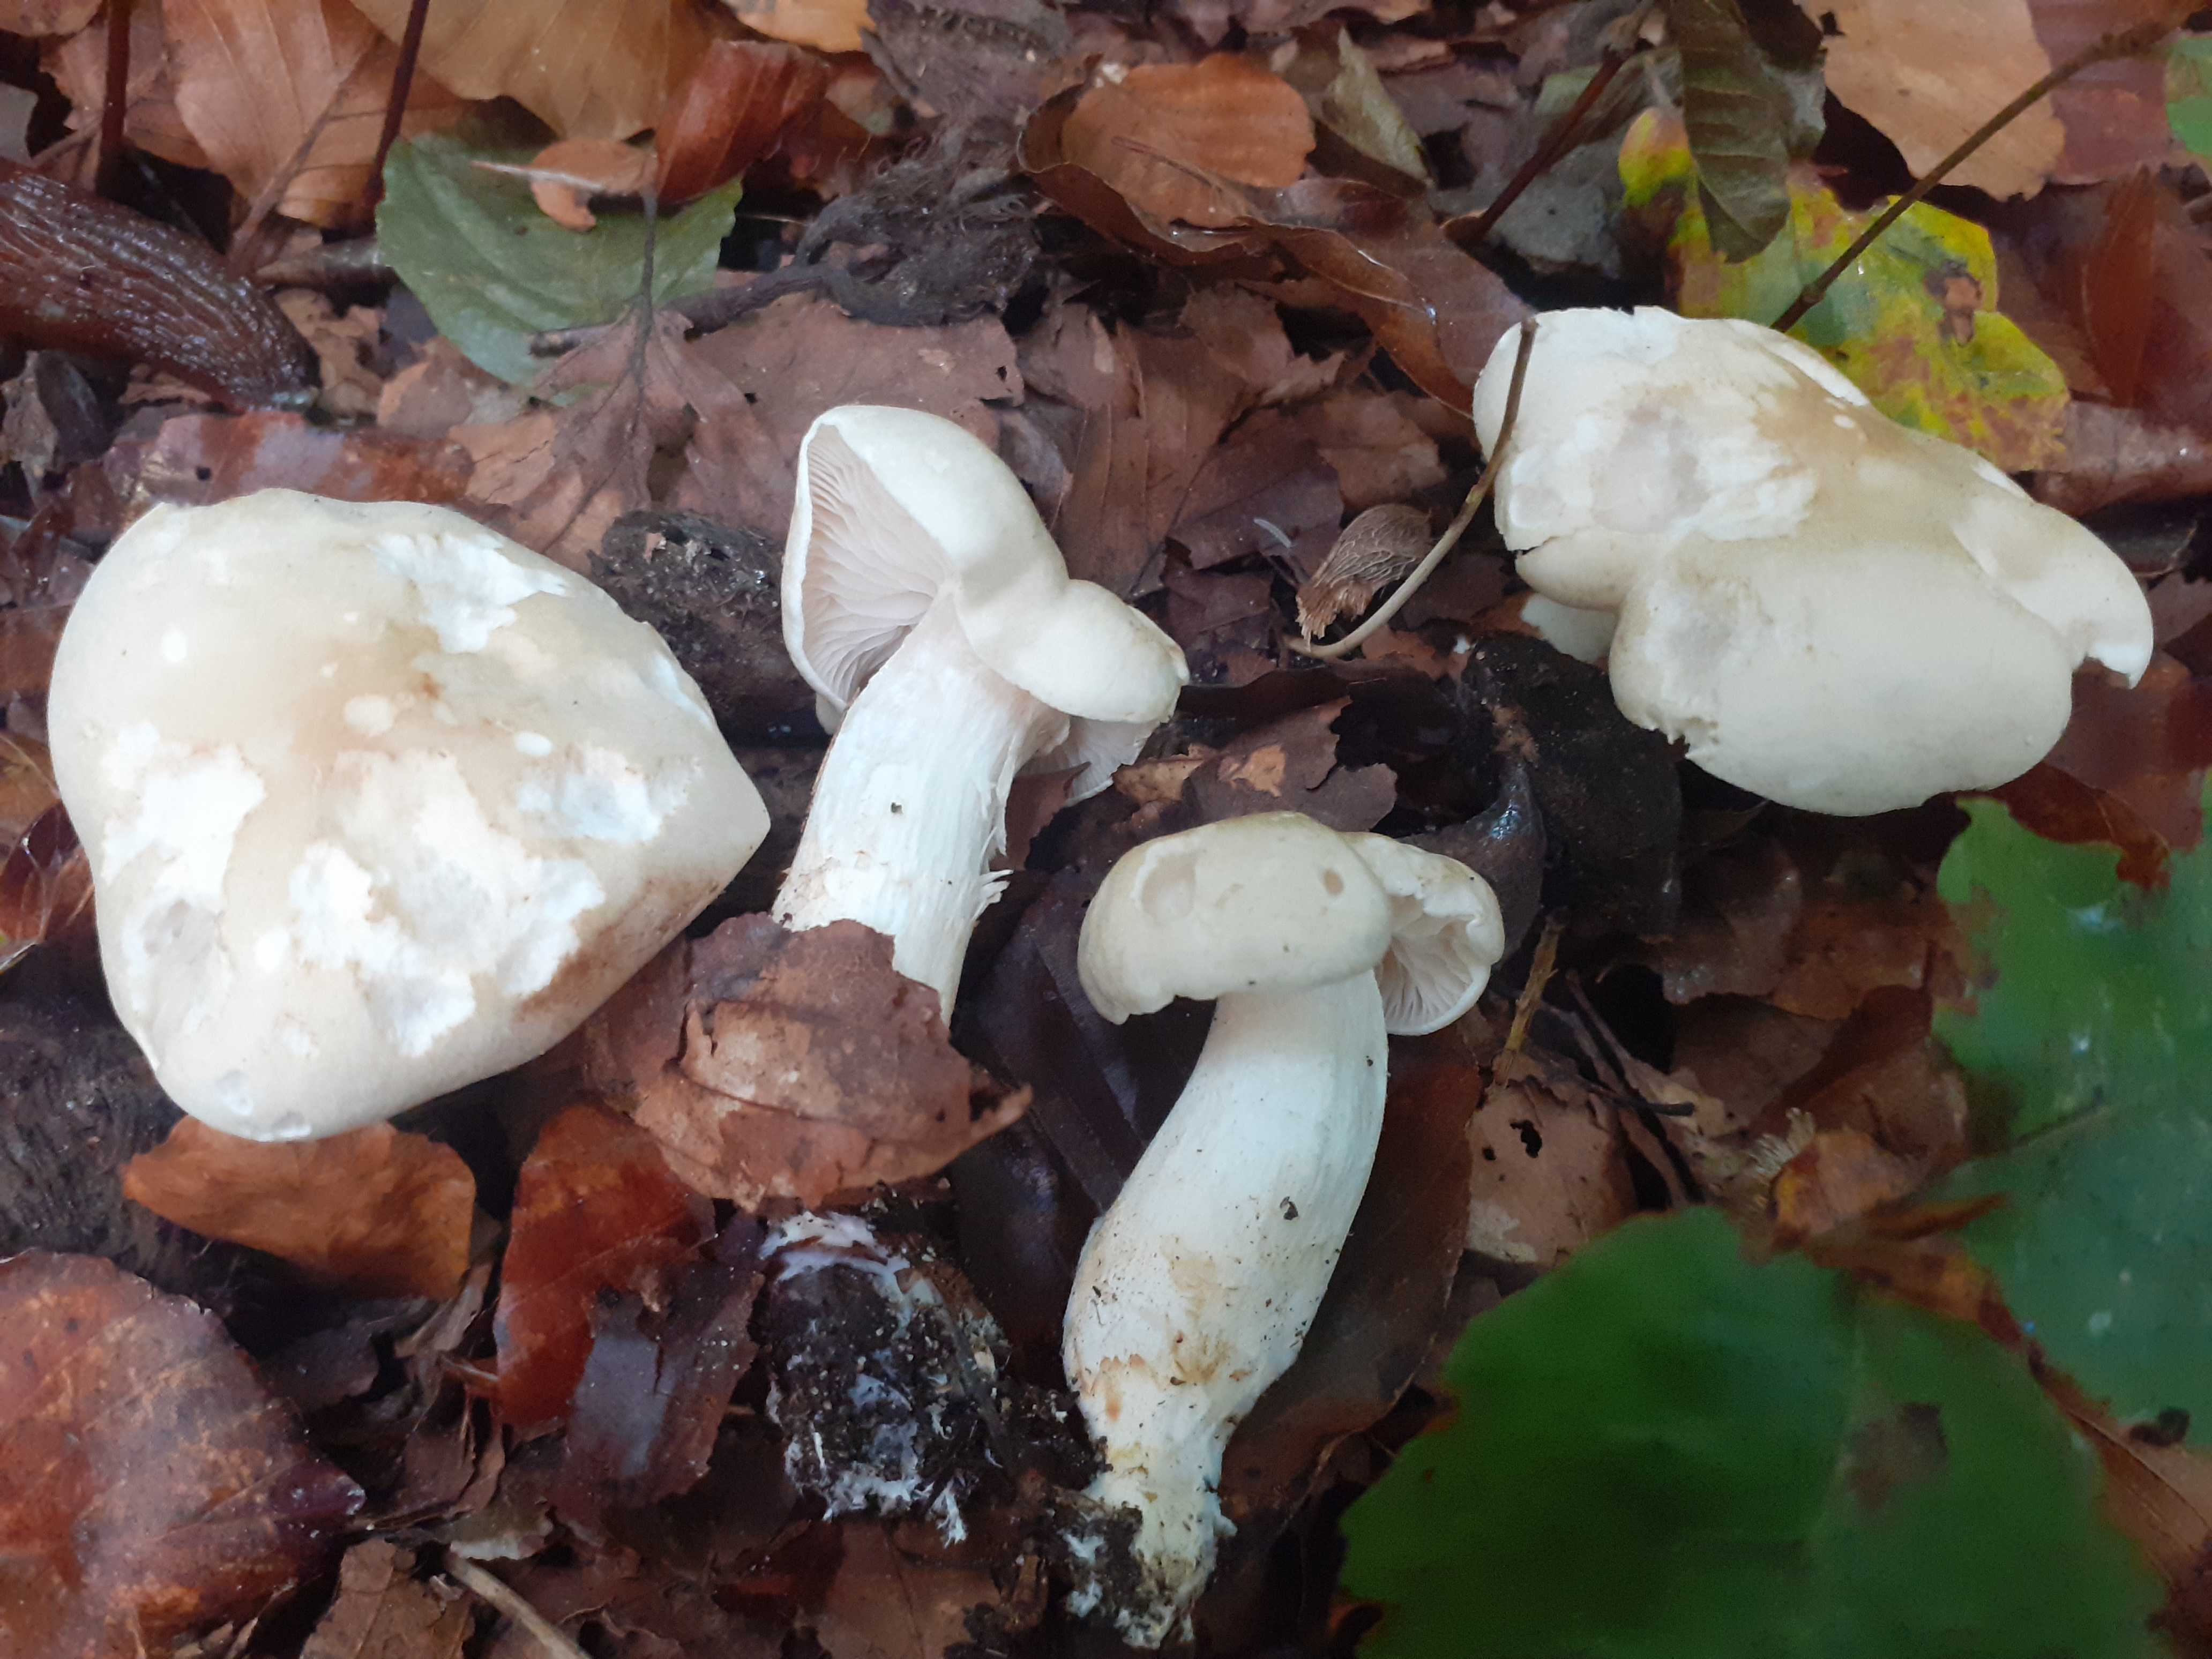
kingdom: Fungi
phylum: Basidiomycota
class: Agaricomycetes
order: Agaricales
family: Tricholomataceae
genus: Tricholoma
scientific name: Tricholoma lascivum
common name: stinkende ridderhat
